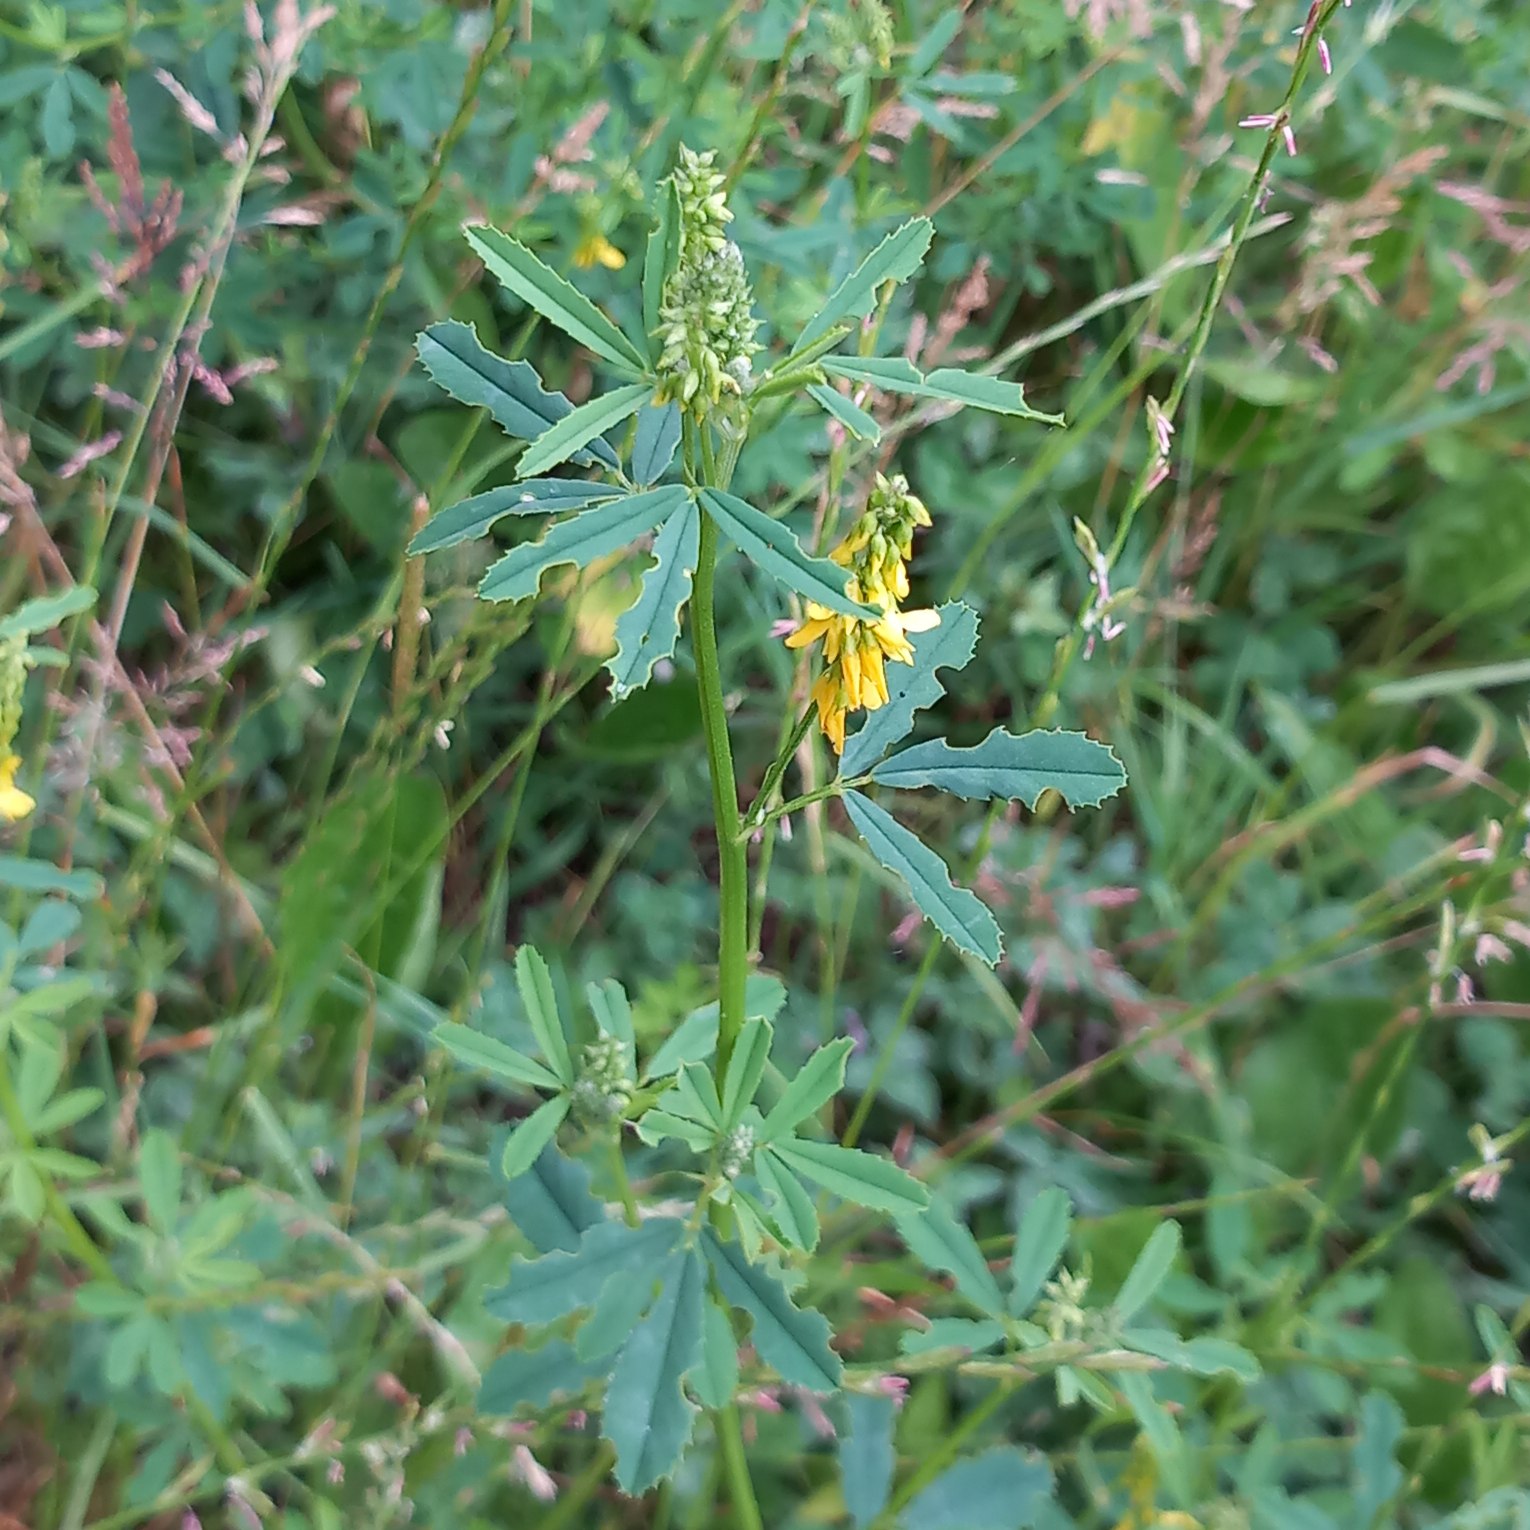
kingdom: Plantae
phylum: Tracheophyta
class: Magnoliopsida
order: Fabales
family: Fabaceae
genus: Melilotus
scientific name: Melilotus
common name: Stenkløverslægten
